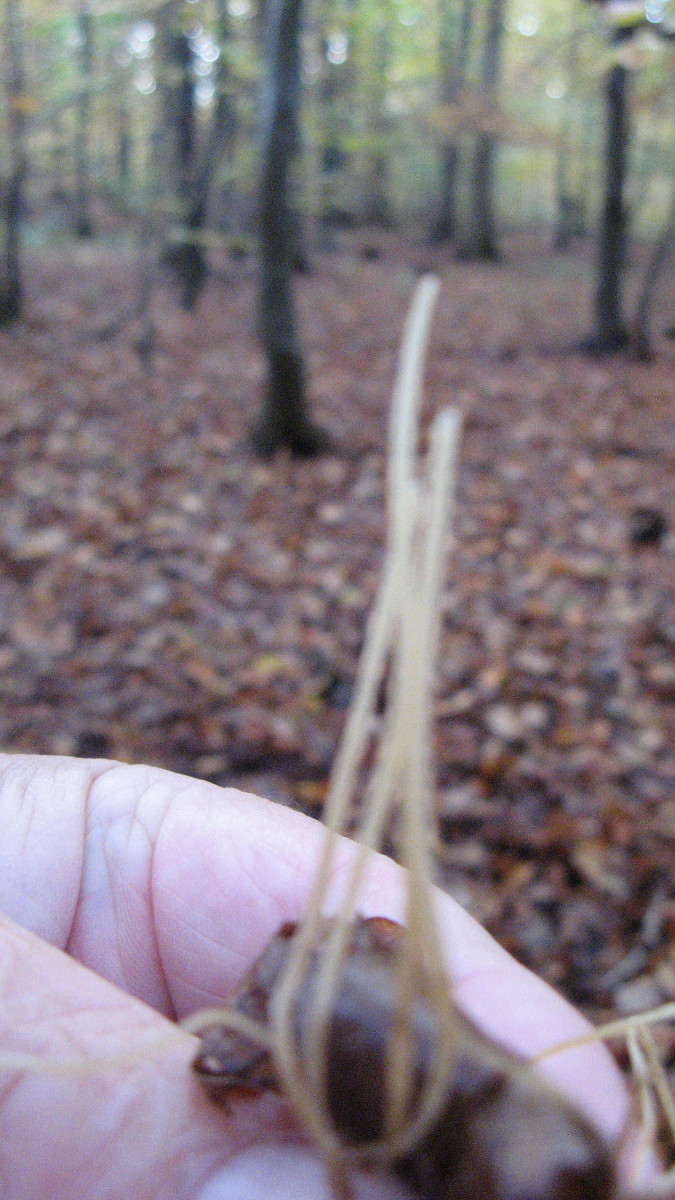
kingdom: Fungi
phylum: Basidiomycota
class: Agaricomycetes
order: Agaricales
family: Typhulaceae
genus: Macrotyphula
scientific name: Macrotyphula
